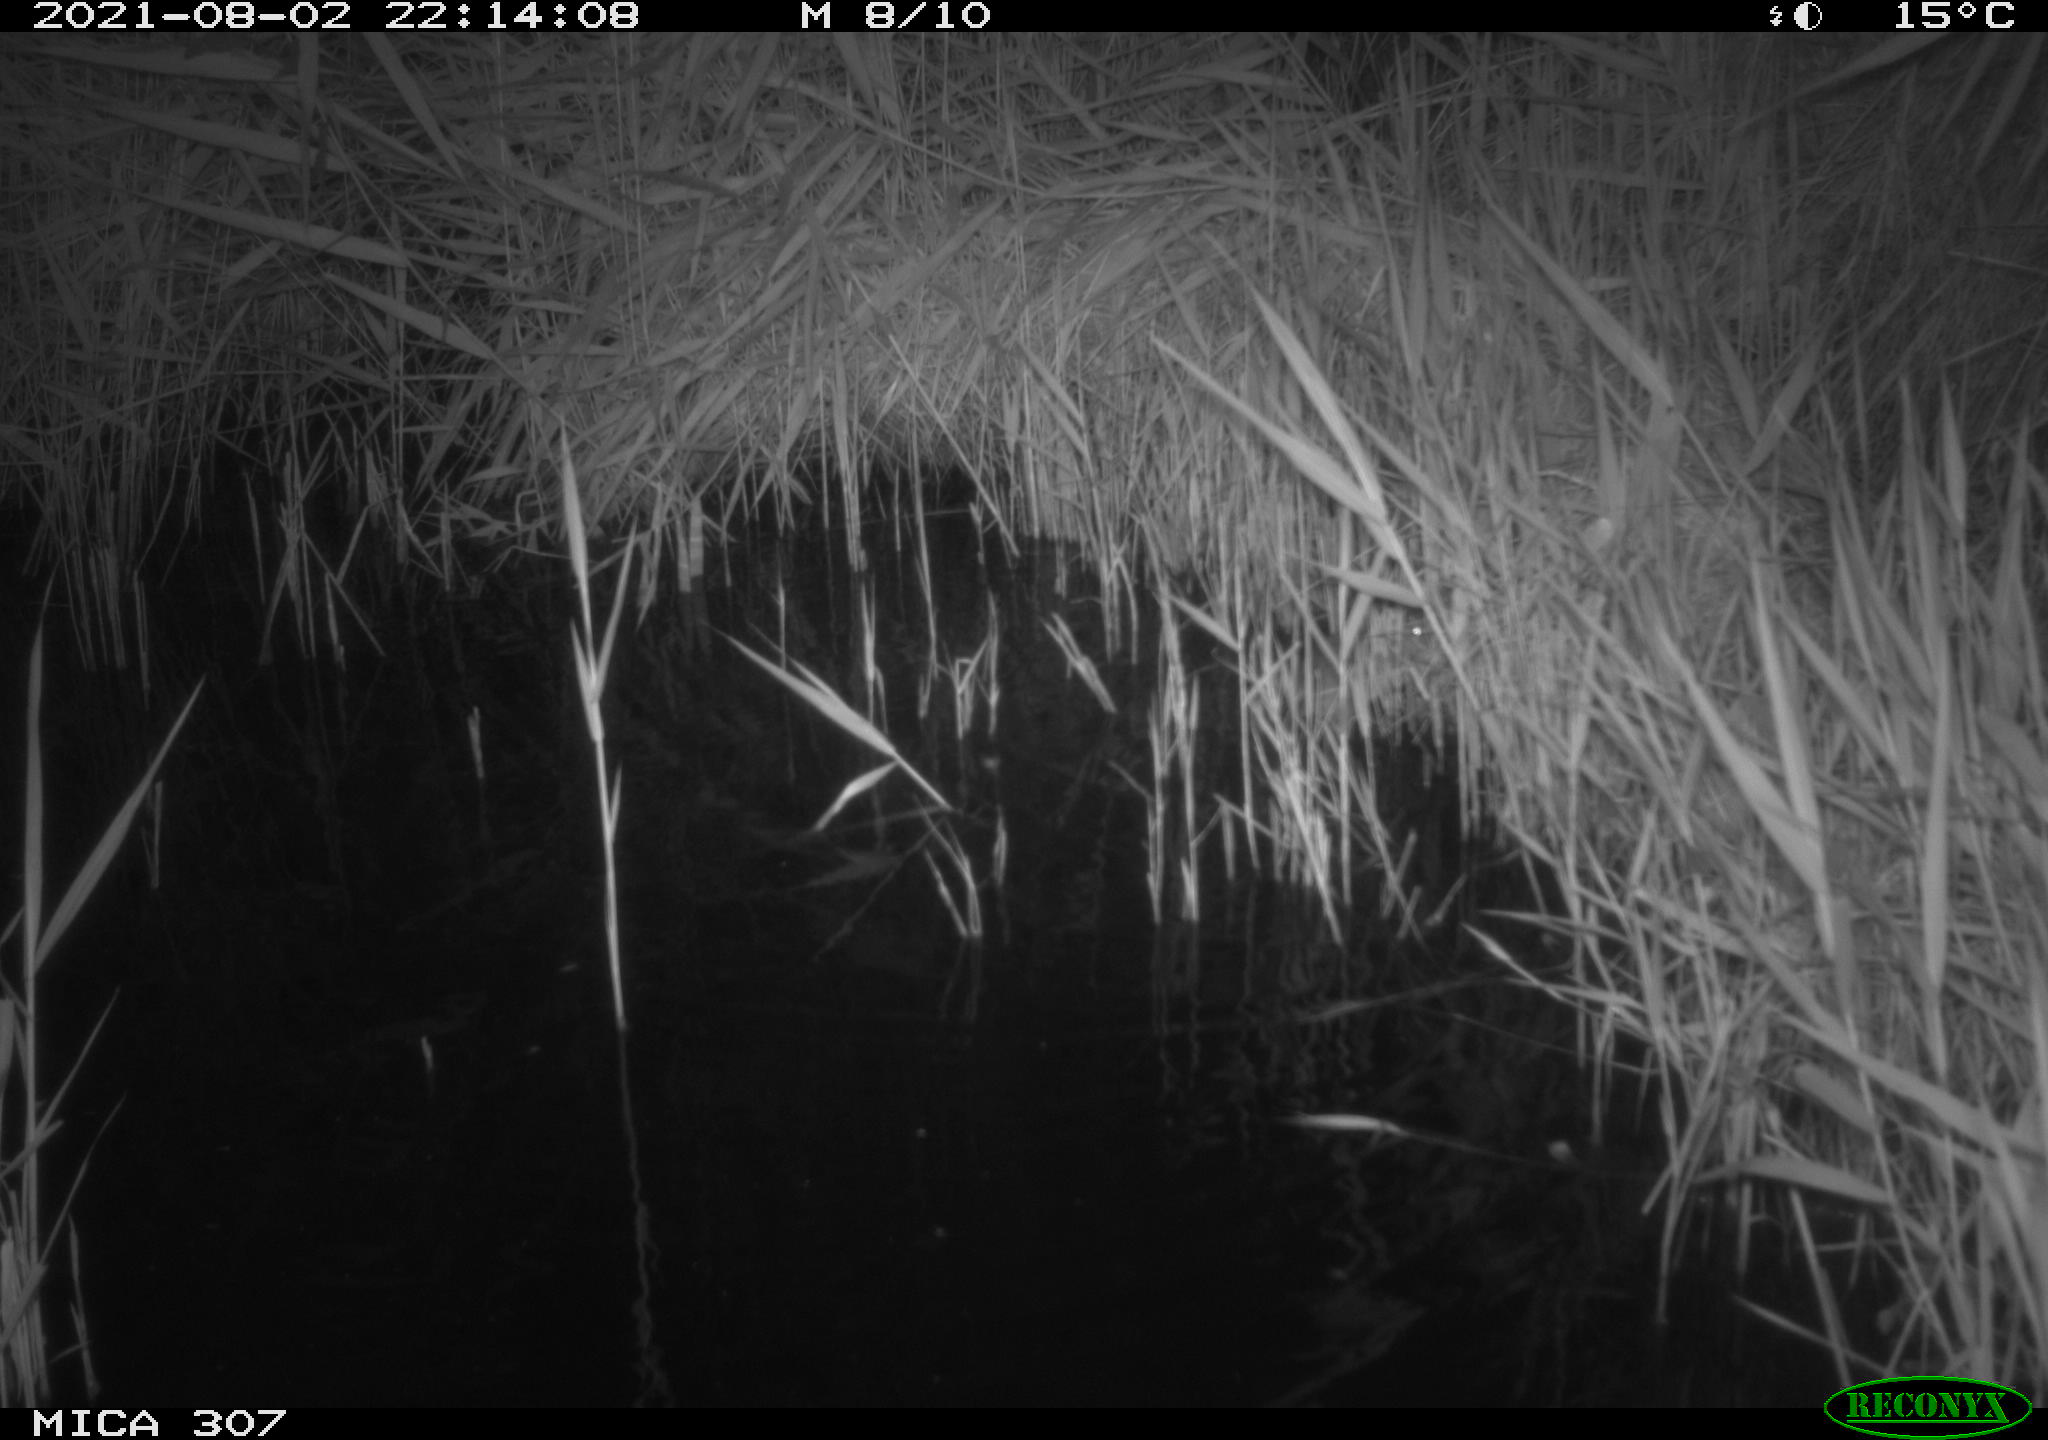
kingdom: Animalia
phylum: Chordata
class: Mammalia
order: Rodentia
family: Muridae
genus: Rattus
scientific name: Rattus norvegicus
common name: Brown rat
